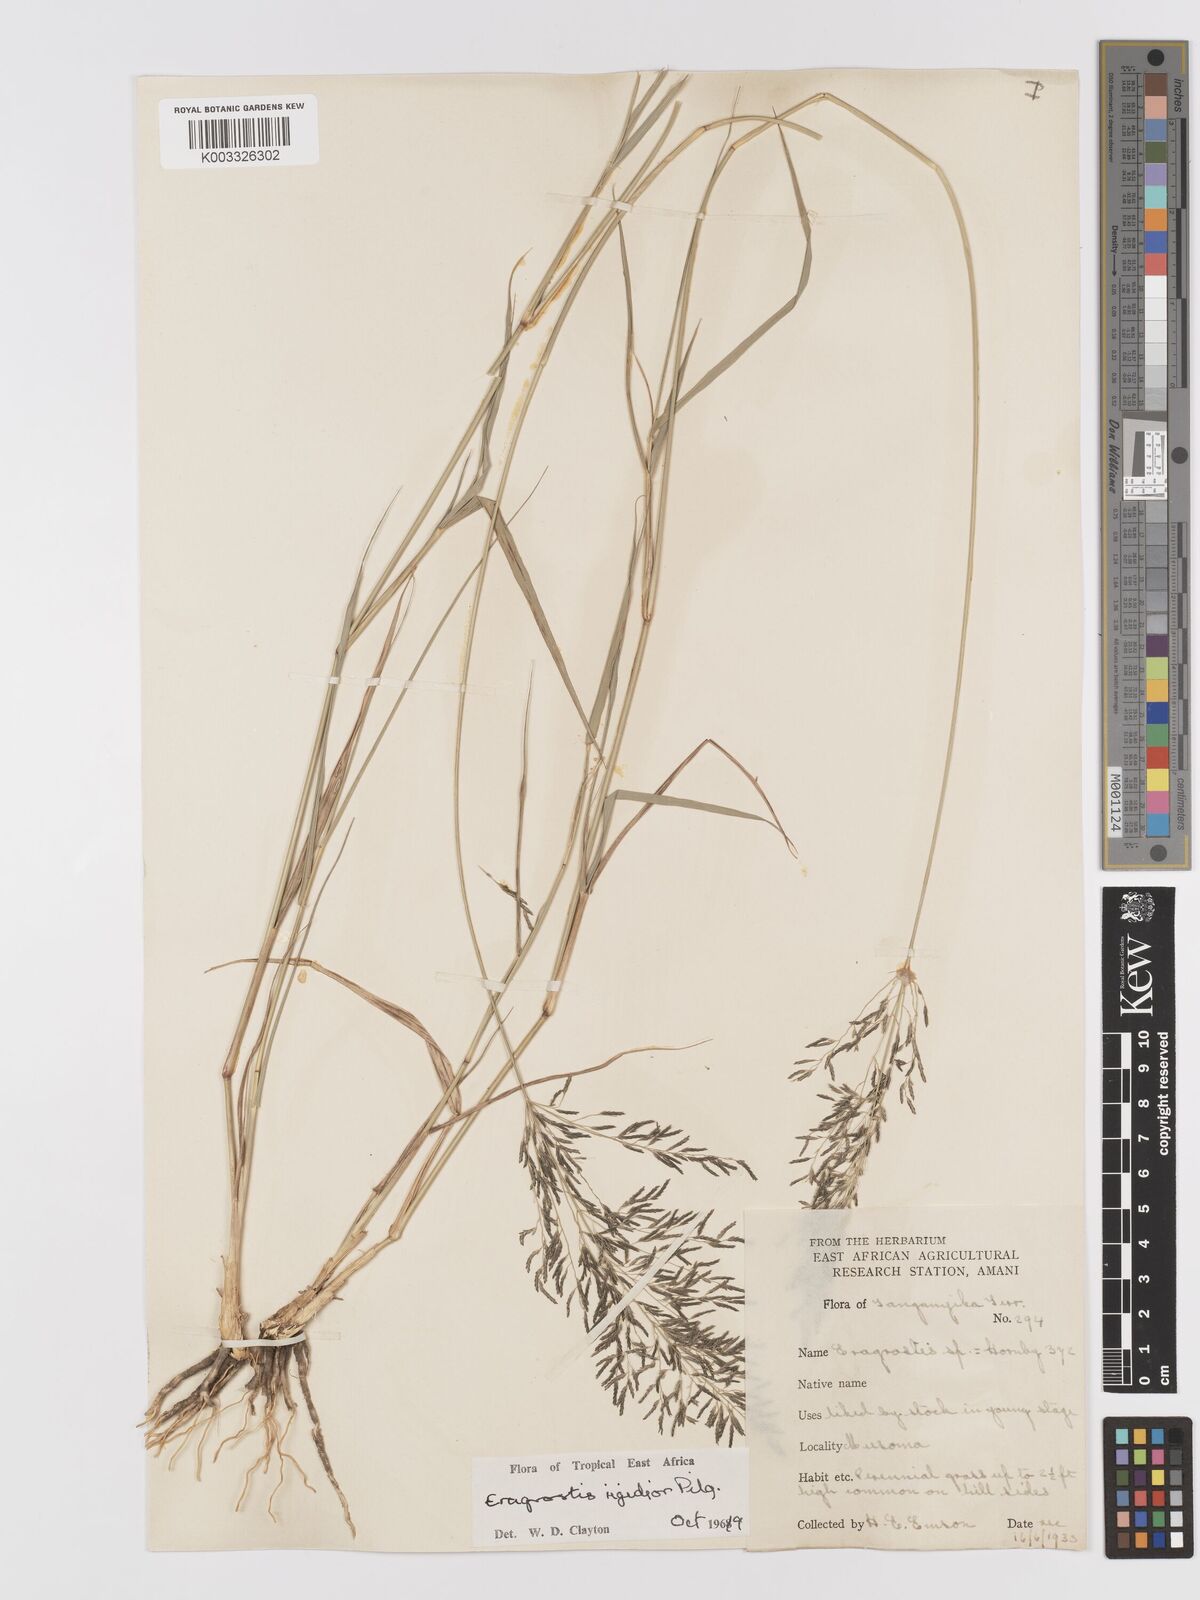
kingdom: Plantae
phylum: Tracheophyta
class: Liliopsida
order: Poales
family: Poaceae
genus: Eragrostis
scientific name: Eragrostis cylindriflora
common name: Cylinderflower lovegrass
